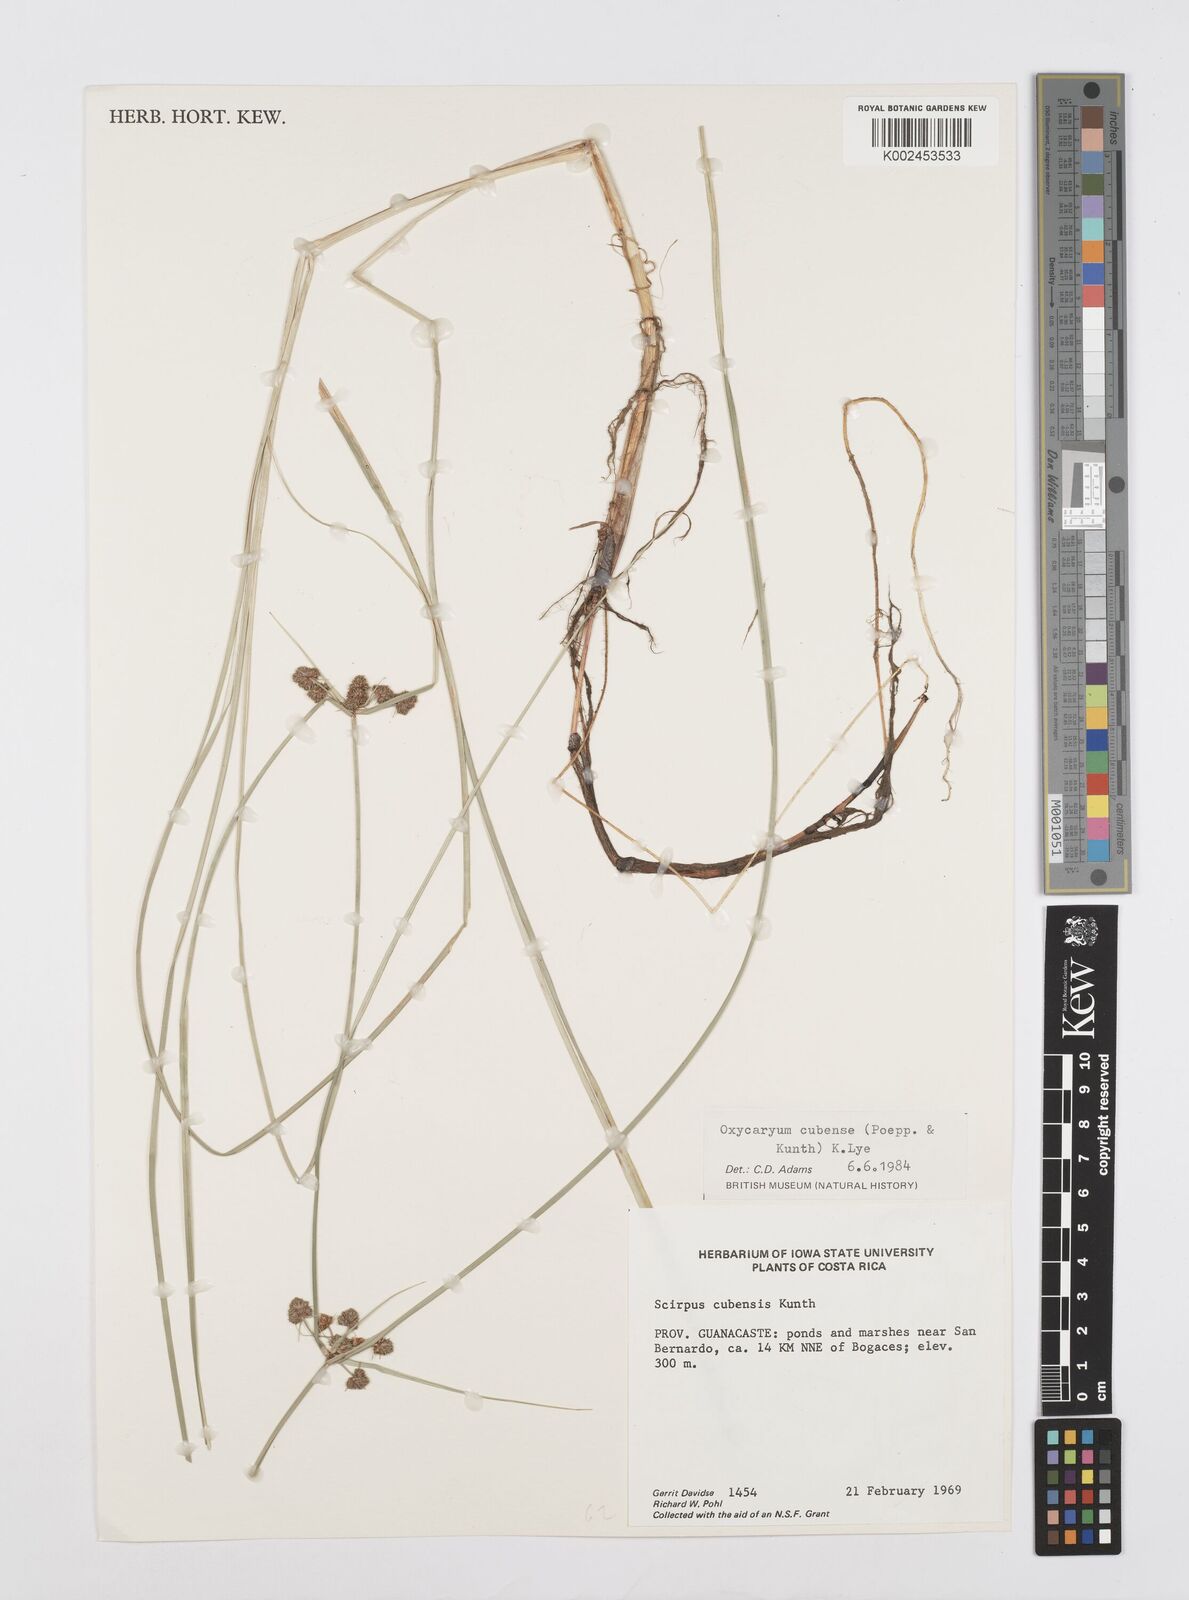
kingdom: Plantae
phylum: Tracheophyta
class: Liliopsida
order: Poales
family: Cyperaceae
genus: Cyperus
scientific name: Cyperus elegans
